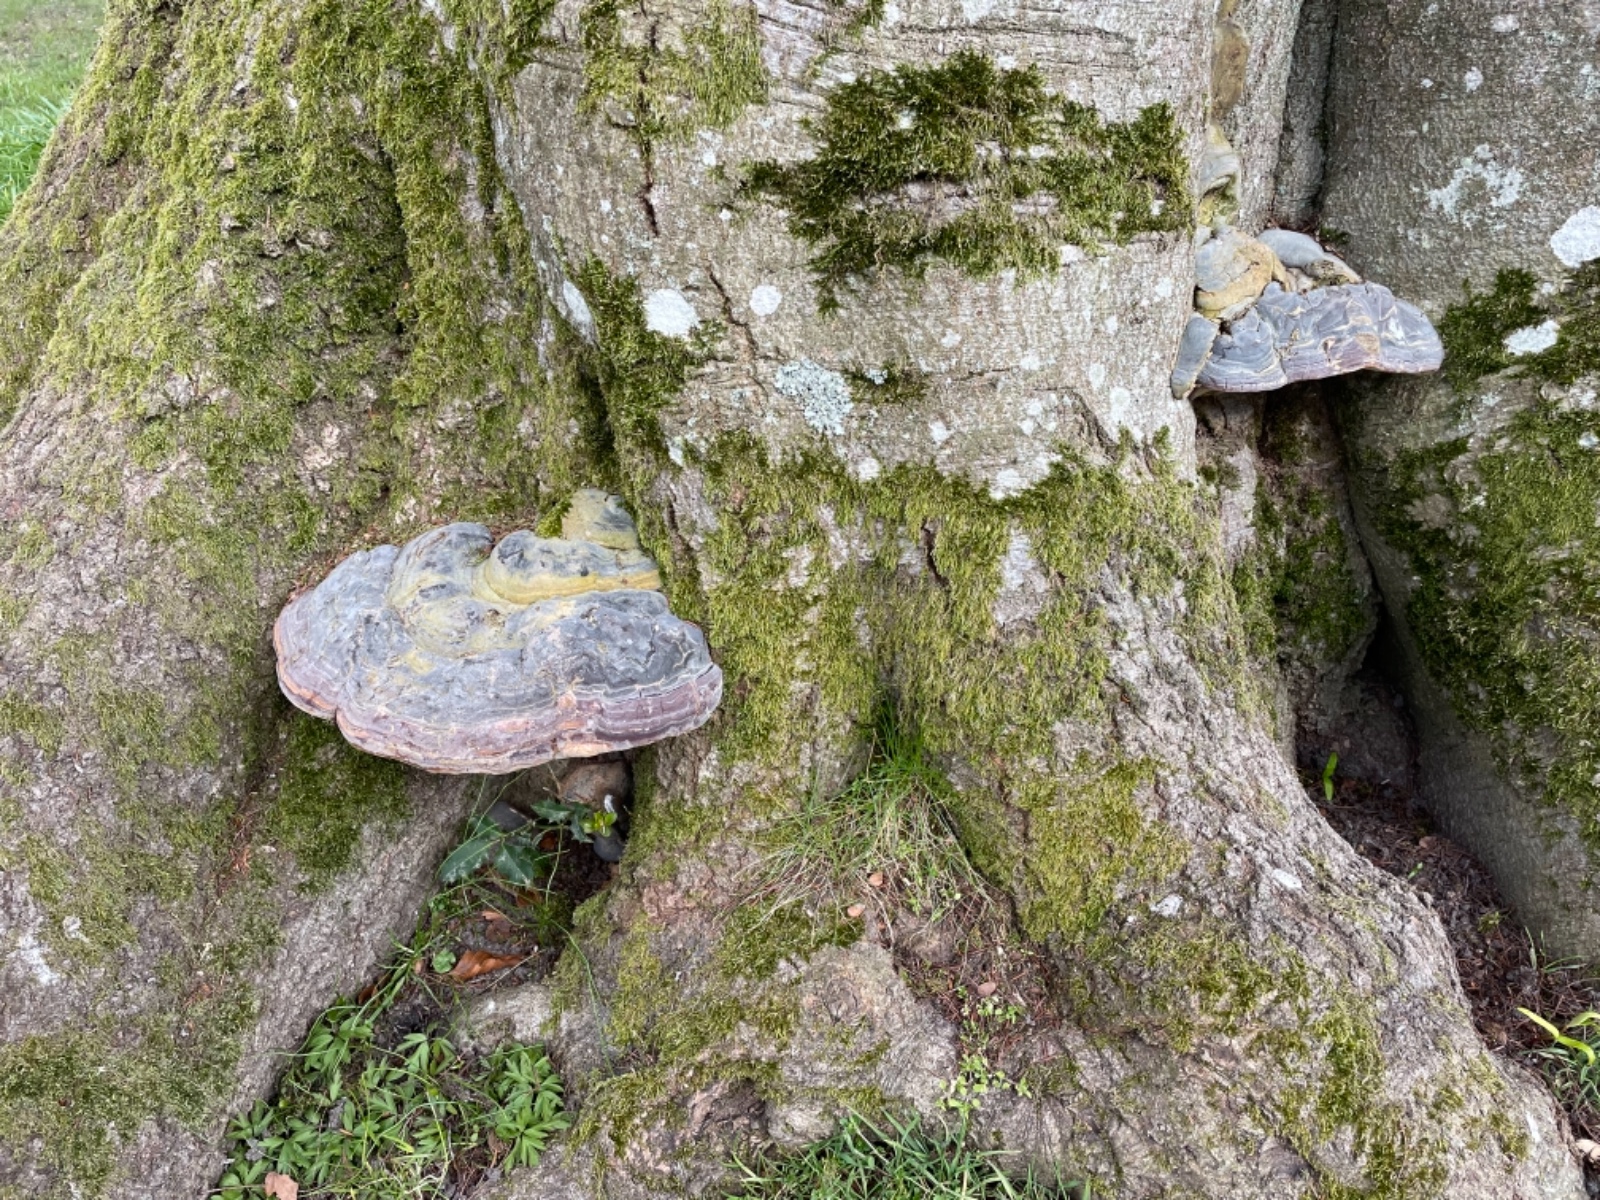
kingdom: Fungi
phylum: Basidiomycota
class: Agaricomycetes
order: Polyporales
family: Polyporaceae
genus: Ganoderma
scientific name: Ganoderma pfeifferi
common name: kobberrød lakporesvamp
